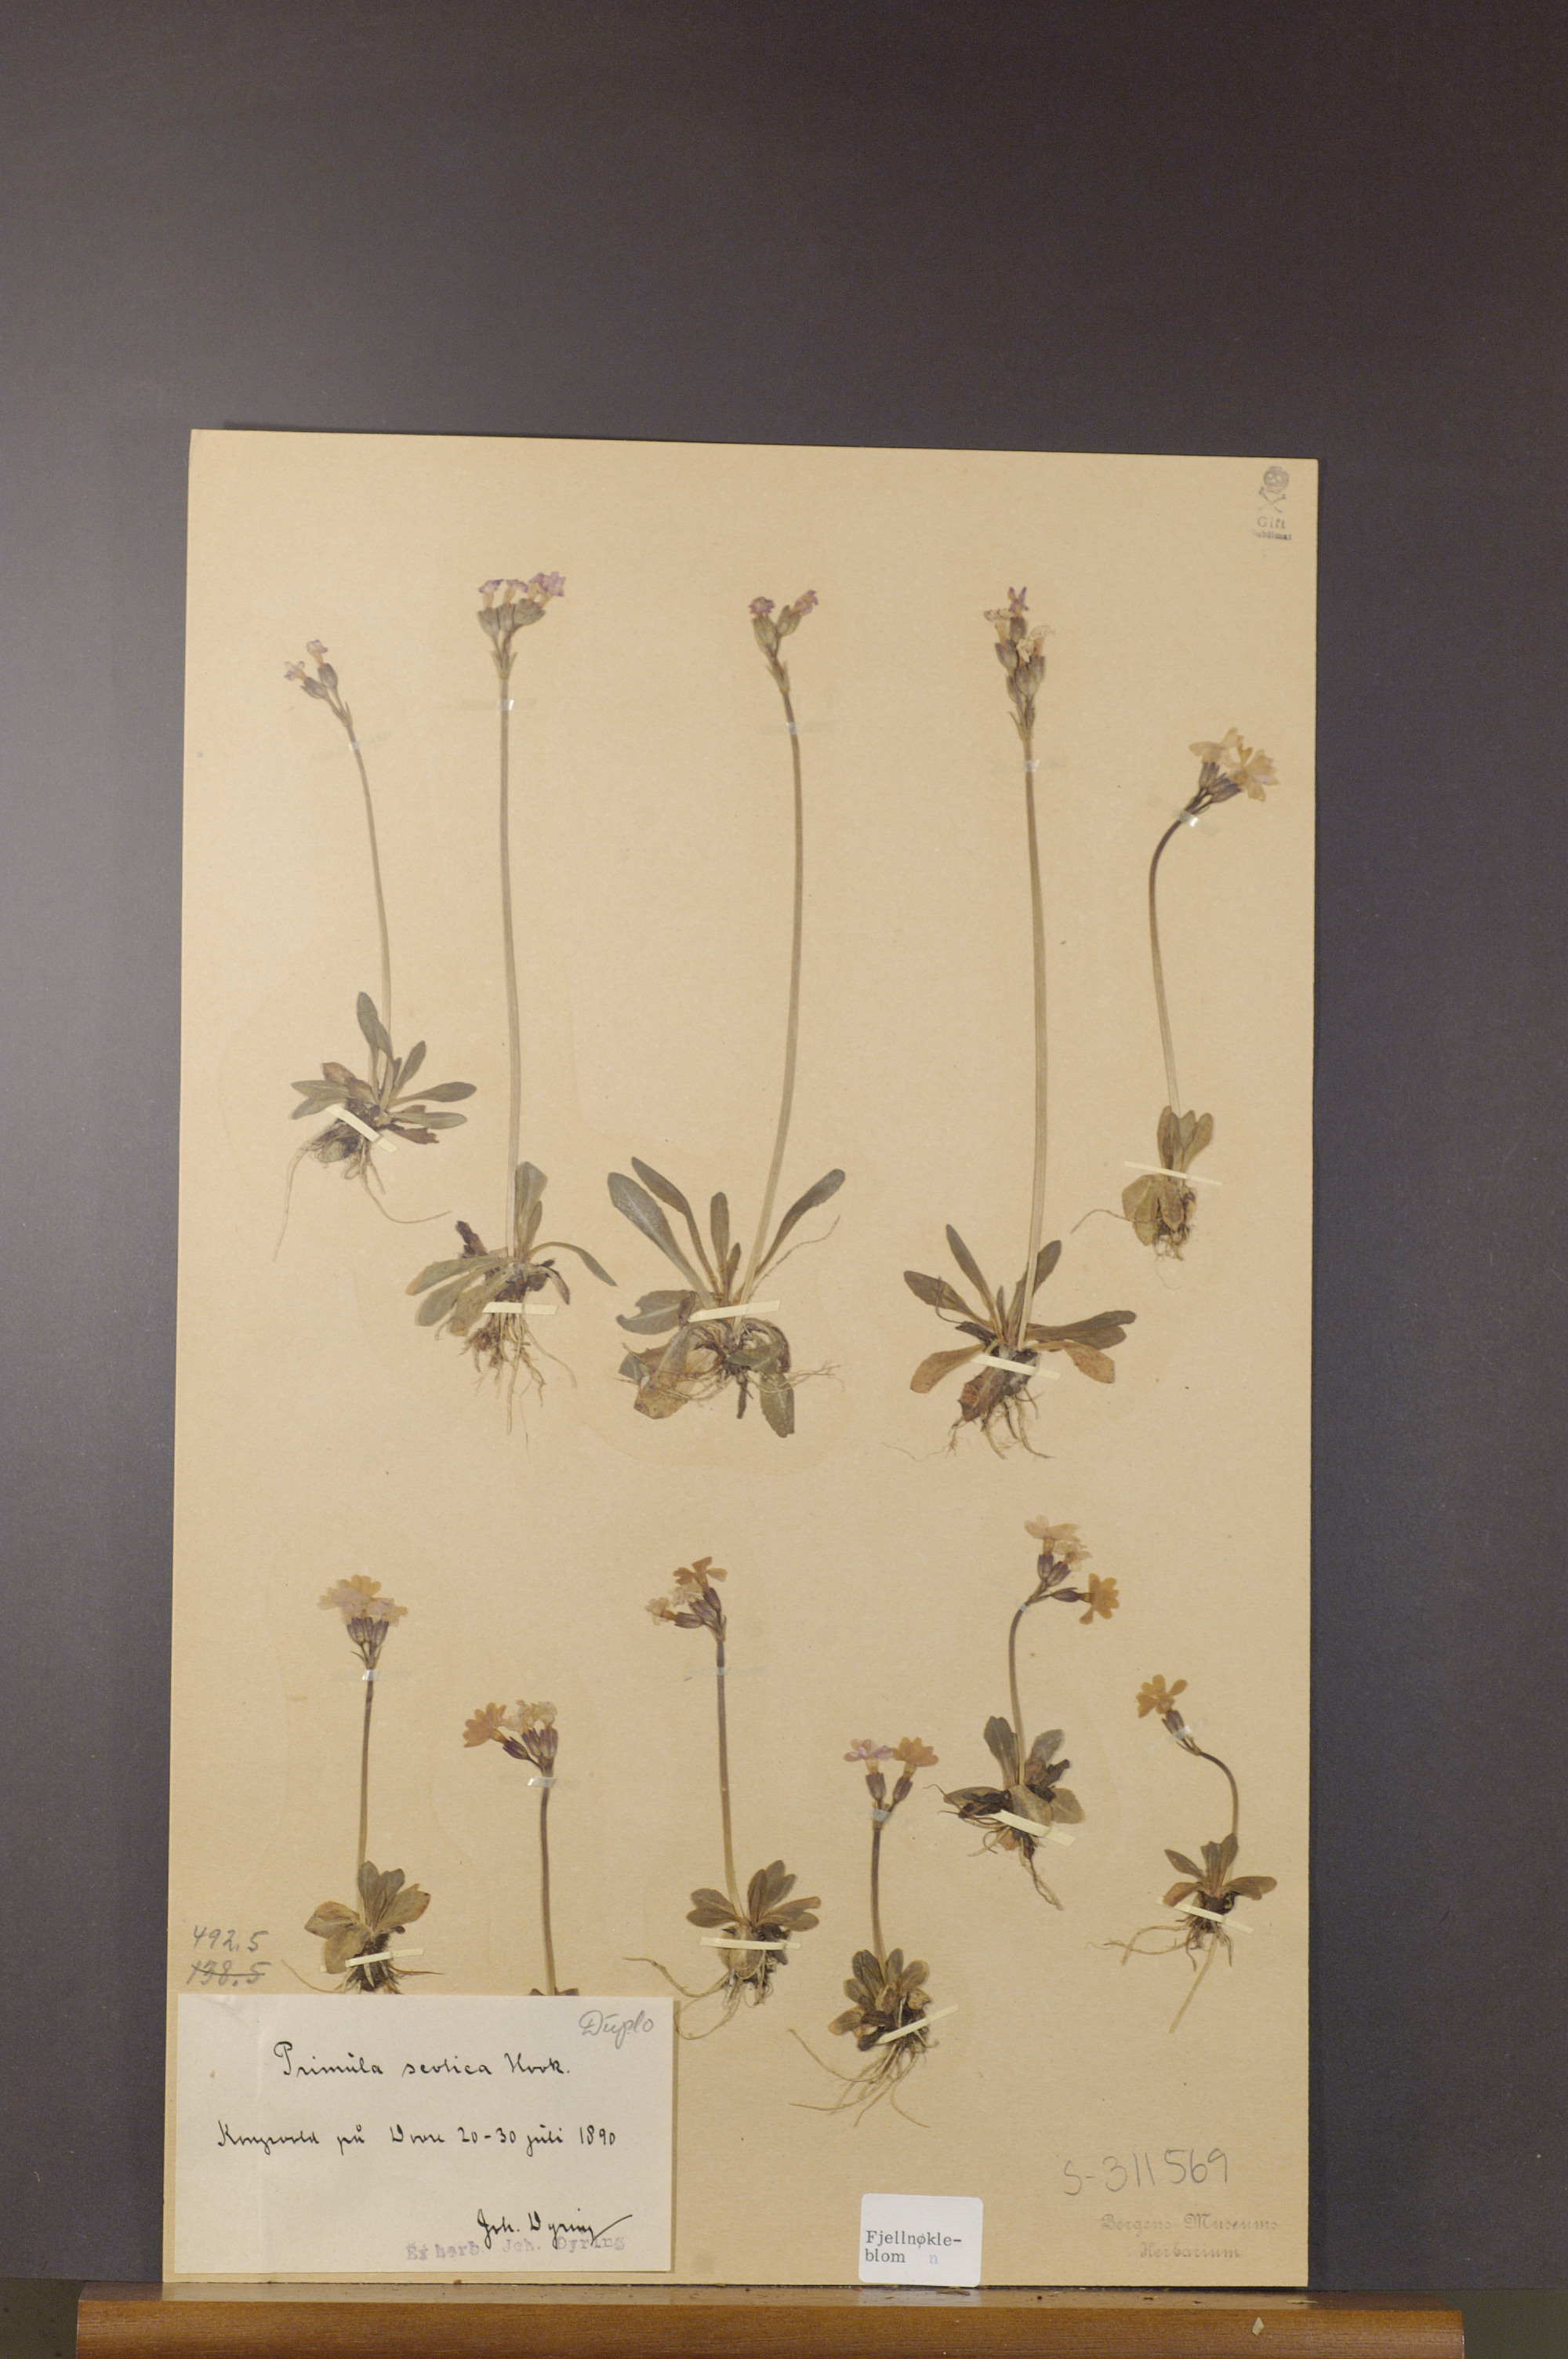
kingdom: Plantae
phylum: Tracheophyta
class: Magnoliopsida
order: Ericales
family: Primulaceae
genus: Primula
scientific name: Primula scotica
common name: Scottish primrose
